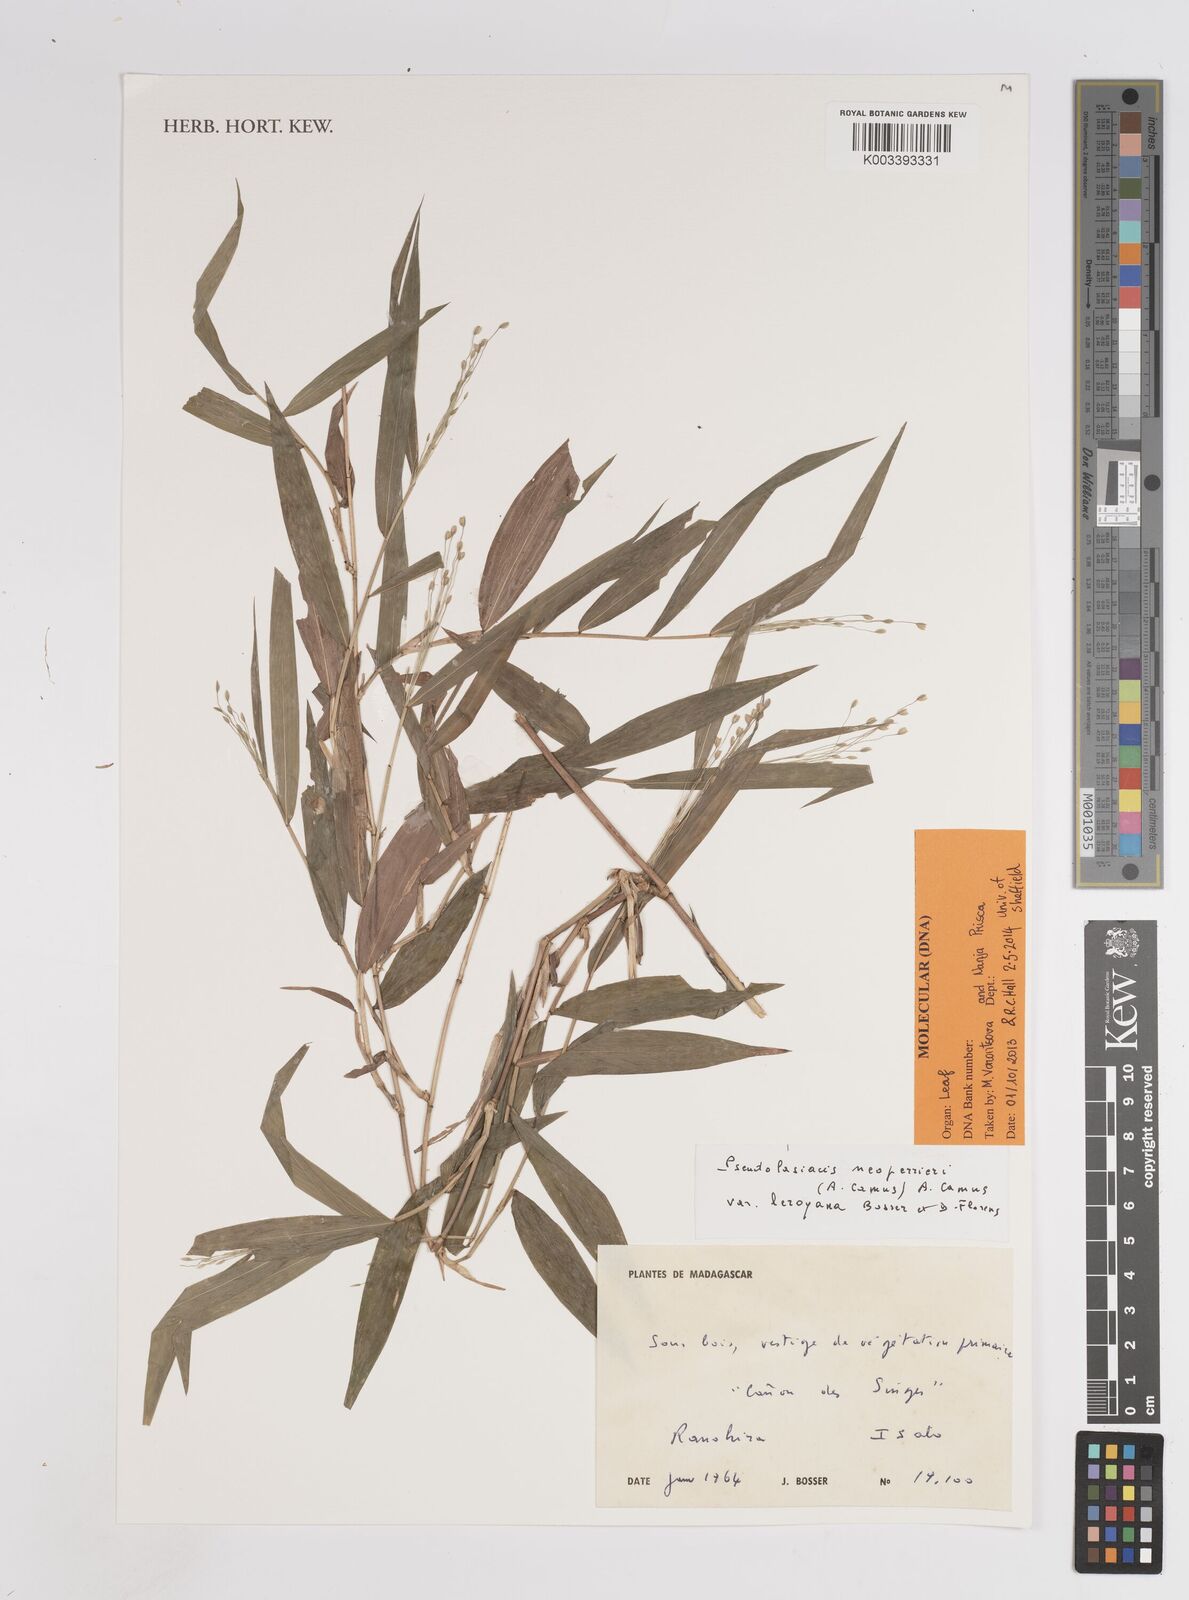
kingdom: Plantae
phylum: Tracheophyta
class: Liliopsida
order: Poales
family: Poaceae
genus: Pseudolasiacis
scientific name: Pseudolasiacis neoperrieri
